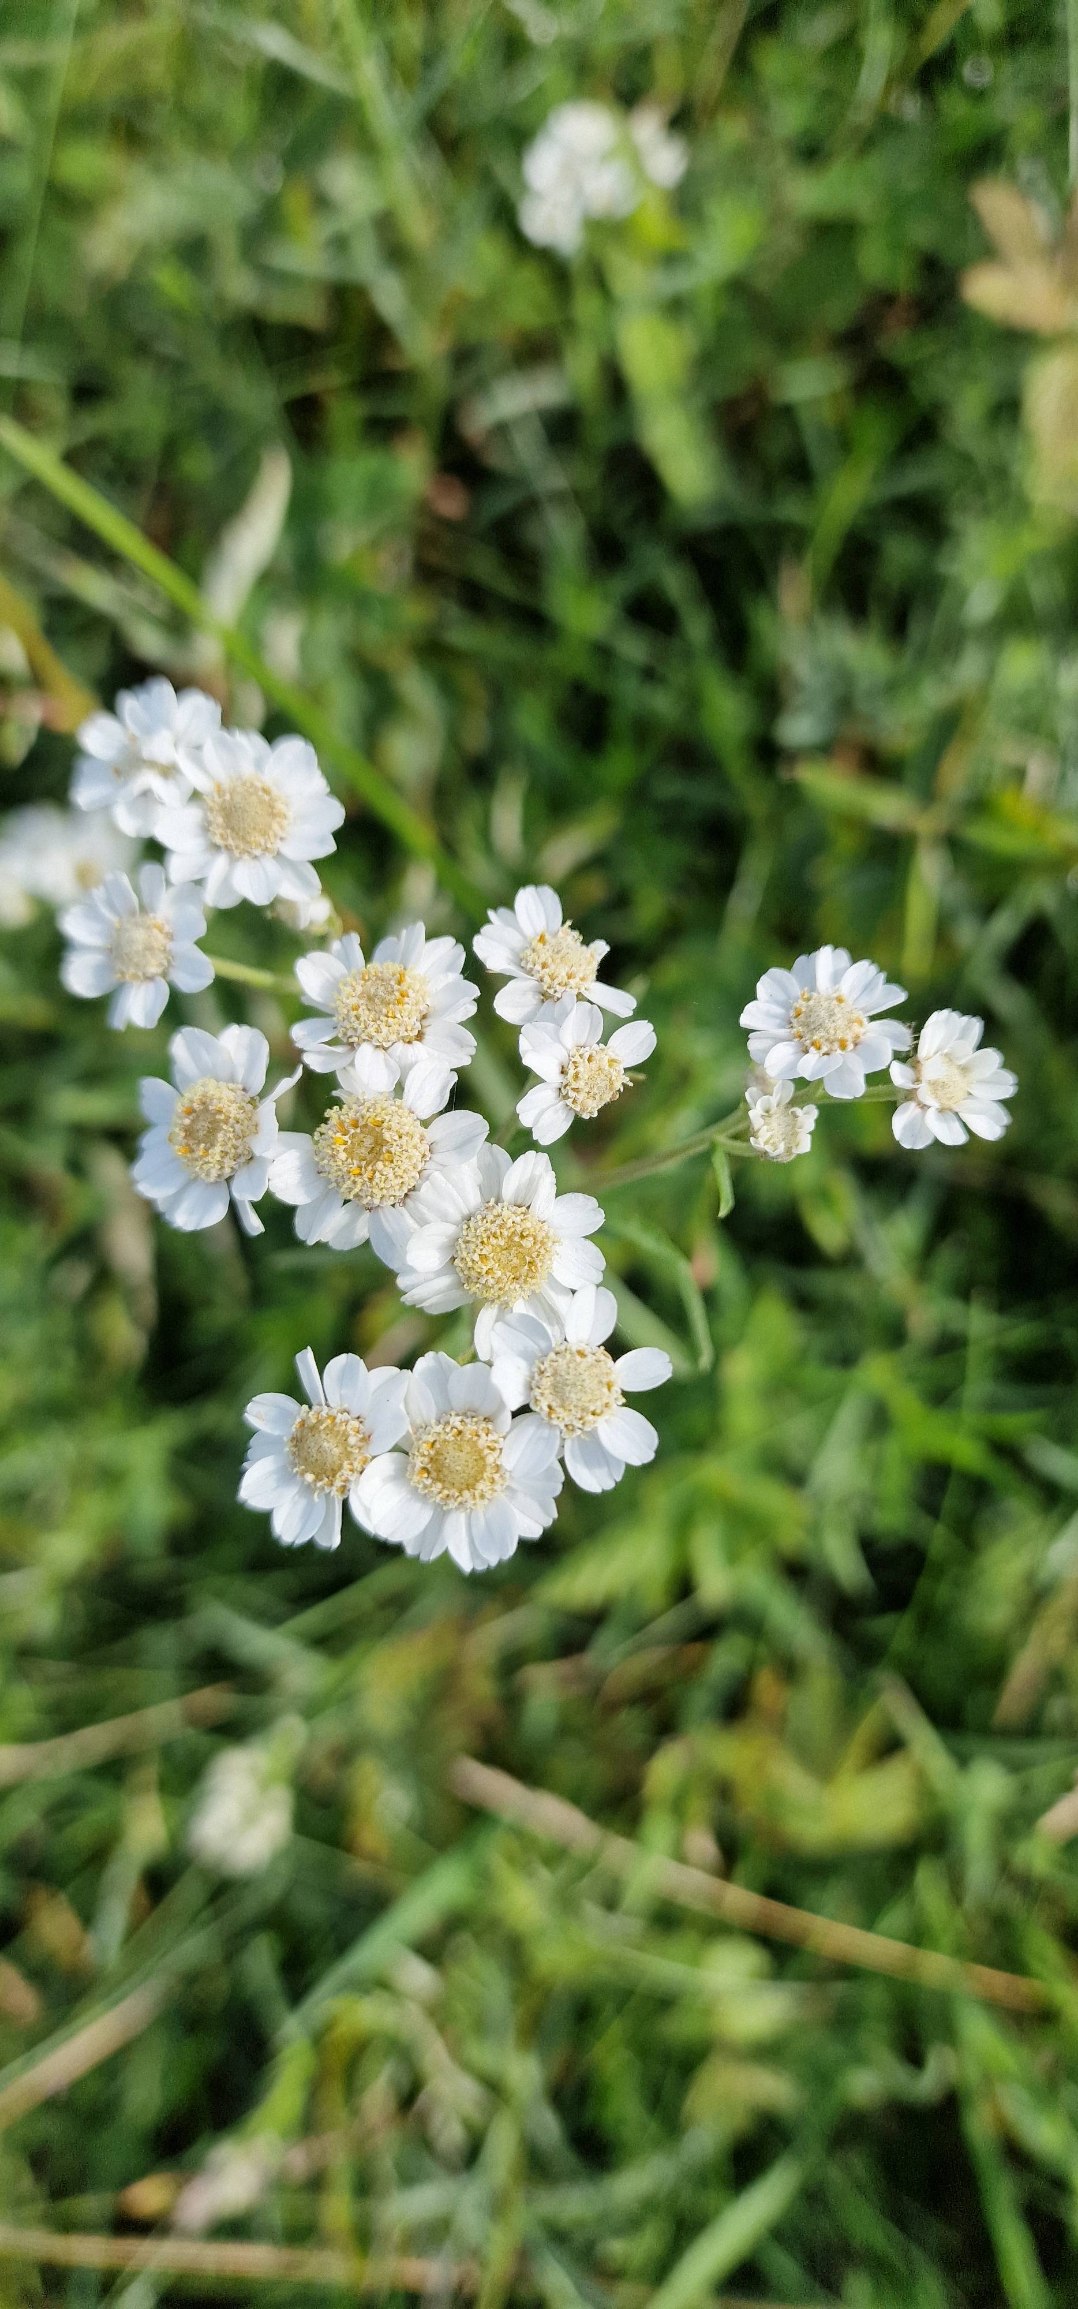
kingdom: Plantae
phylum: Tracheophyta
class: Magnoliopsida
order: Asterales
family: Asteraceae
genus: Achillea
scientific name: Achillea ptarmica
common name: Nyse-røllike
